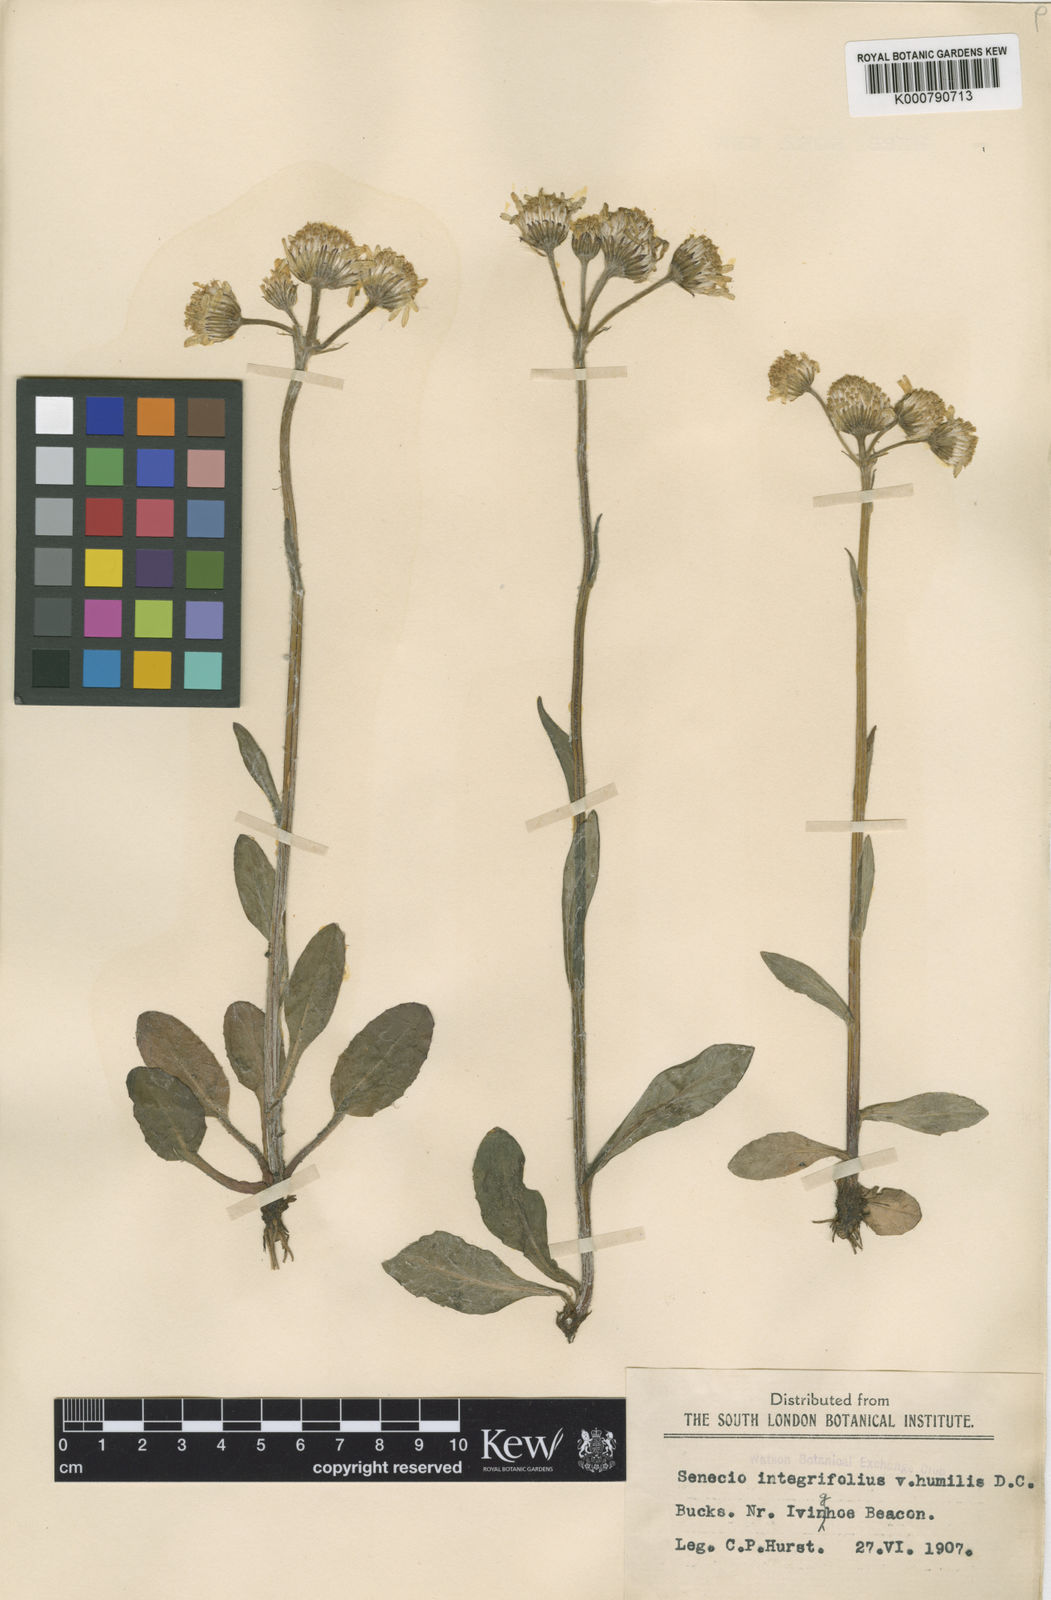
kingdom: Plantae
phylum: Tracheophyta
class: Magnoliopsida
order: Asterales
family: Asteraceae
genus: Tephroseris
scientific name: Tephroseris integrifolia
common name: Field fleawort
